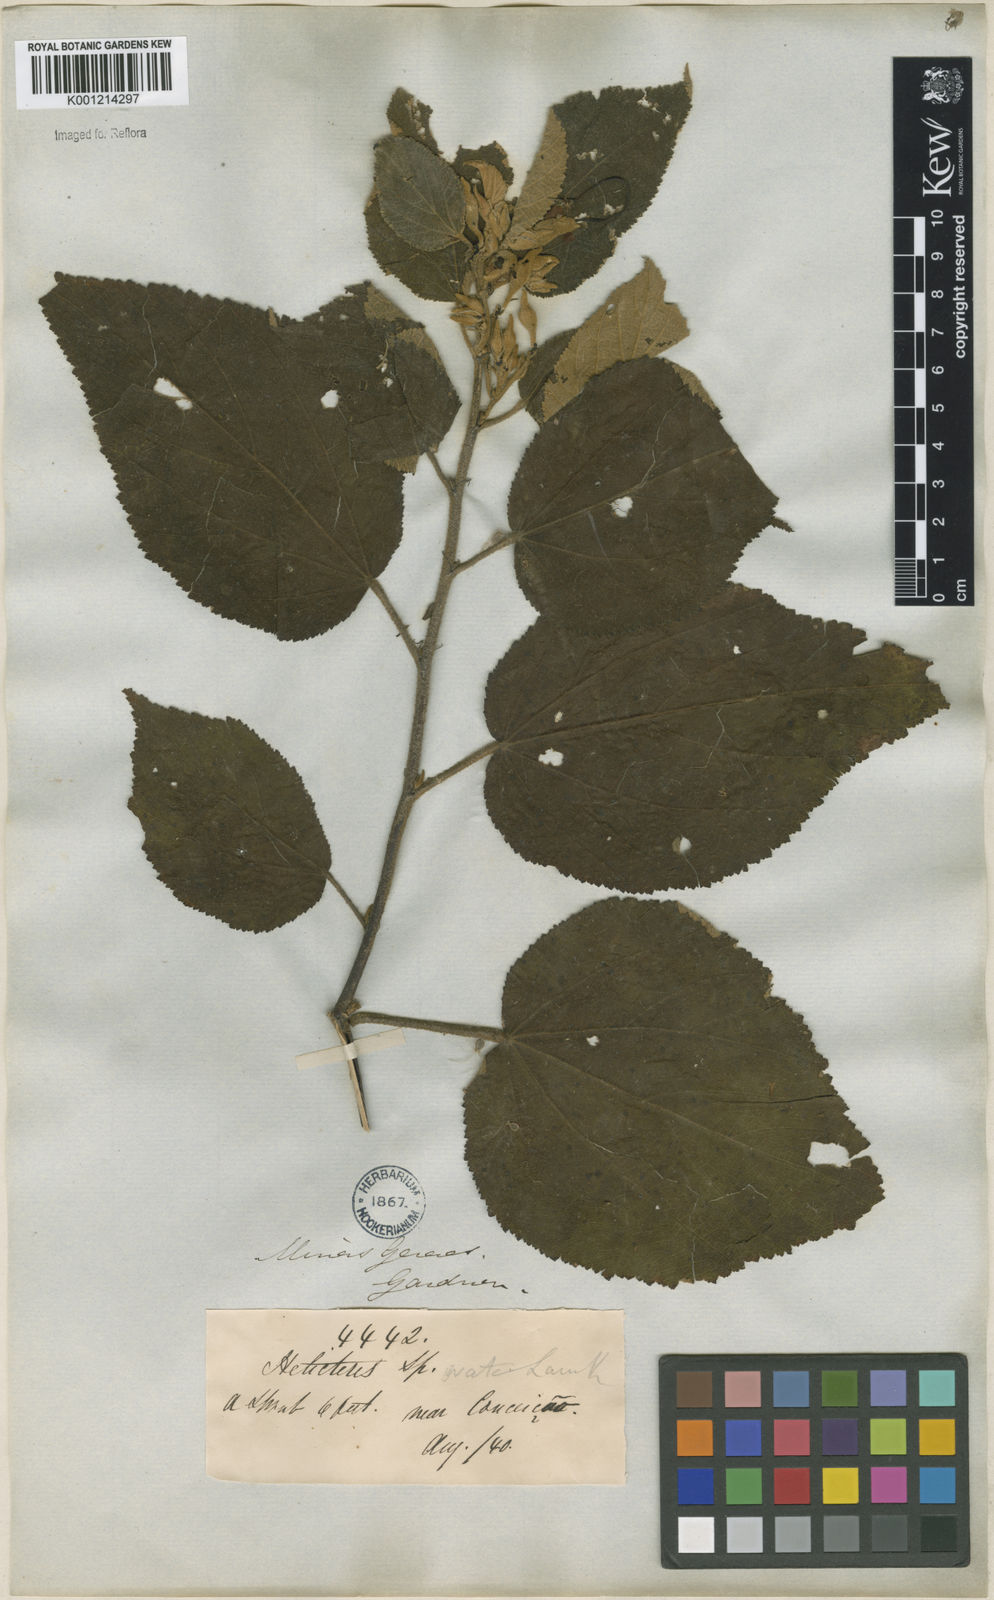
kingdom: Plantae
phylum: Tracheophyta
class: Magnoliopsida
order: Malvales
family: Malvaceae
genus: Helicteres
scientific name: Helicteres ovata
